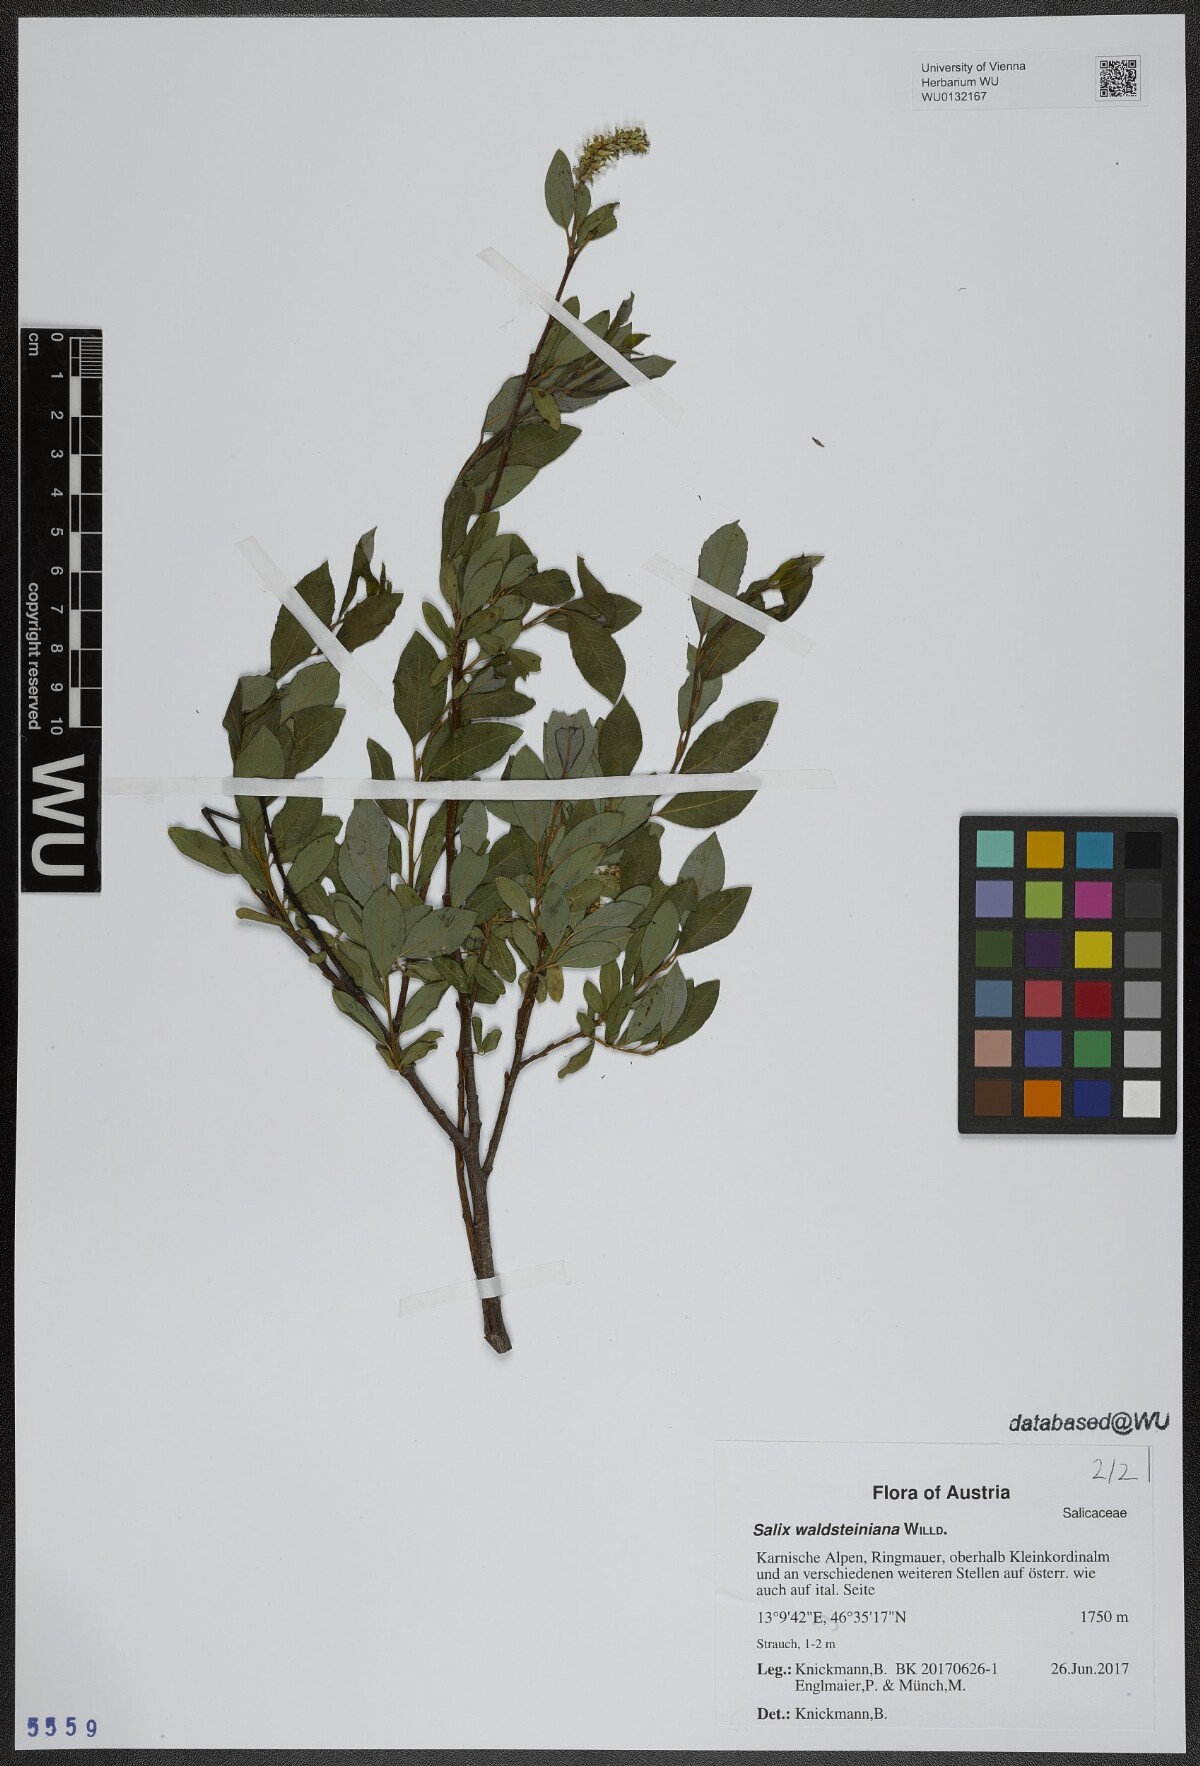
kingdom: Plantae
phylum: Tracheophyta
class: Magnoliopsida
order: Malpighiales
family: Salicaceae
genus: Salix
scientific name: Salix waldsteiniana
